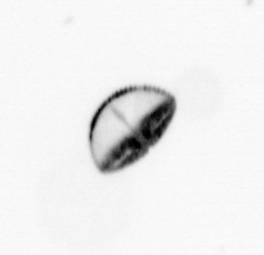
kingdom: Chromista
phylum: Ochrophyta
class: Bacillariophyceae
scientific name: Bacillariophyceae
